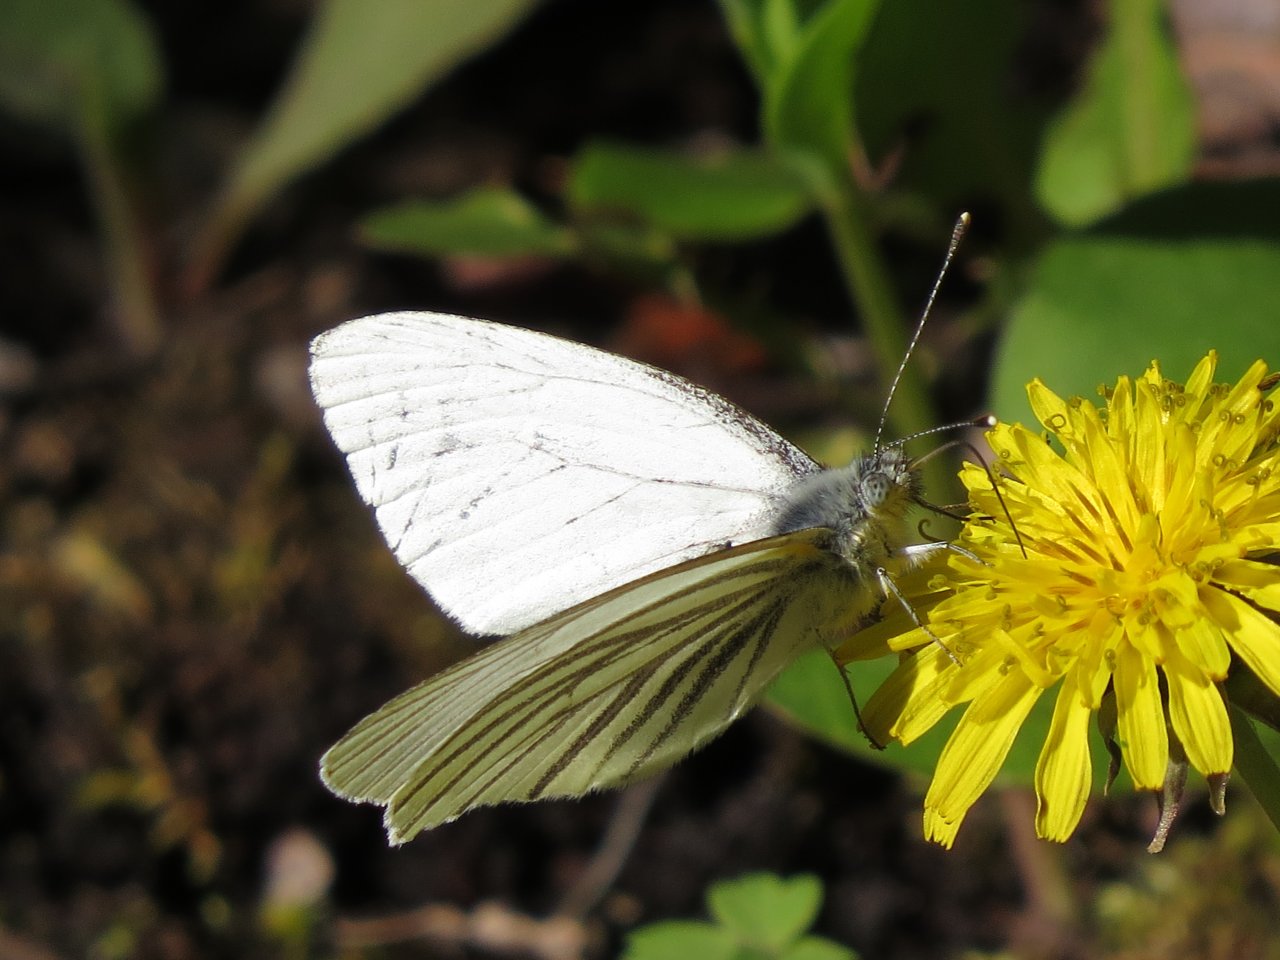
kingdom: Animalia
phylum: Arthropoda
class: Insecta
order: Lepidoptera
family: Pieridae
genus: Pieris
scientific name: Pieris oleracea
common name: Mustard White
